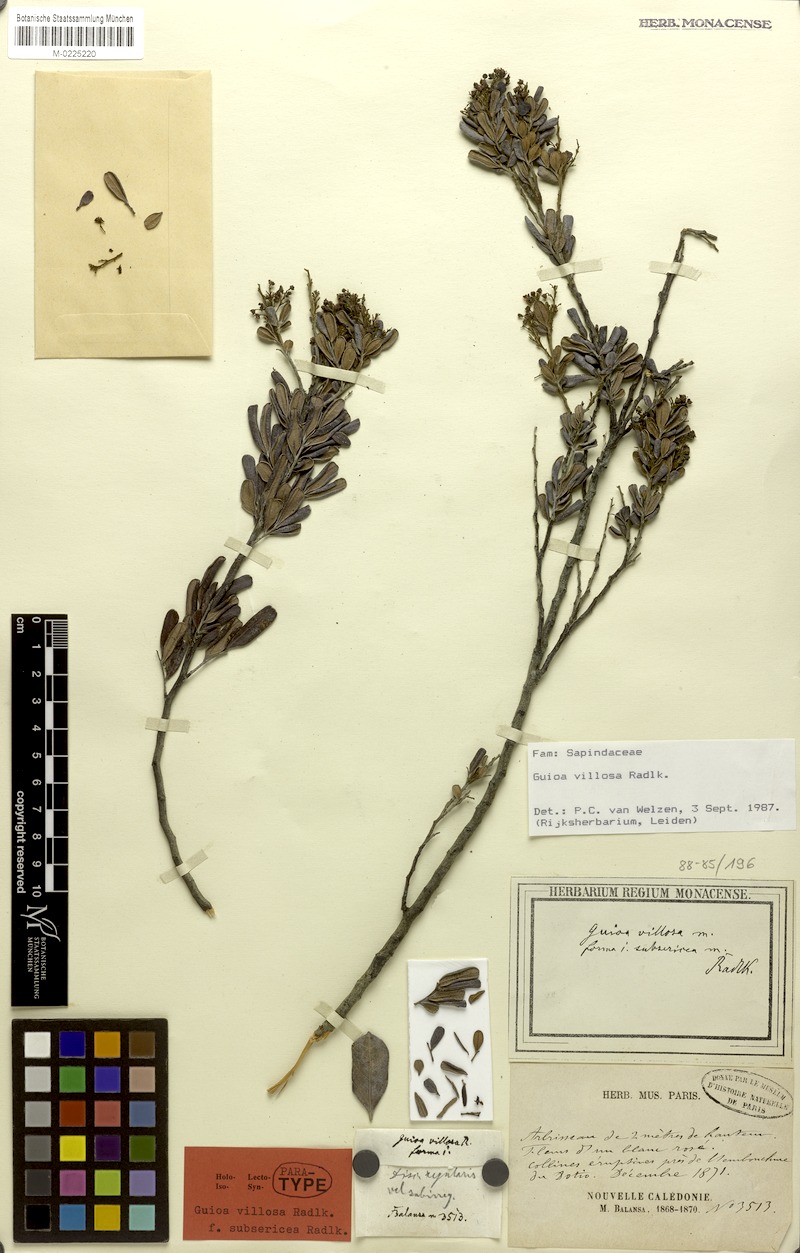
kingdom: Plantae
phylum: Tracheophyta
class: Magnoliopsida
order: Sapindales
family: Sapindaceae
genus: Guioa
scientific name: Guioa villosa
